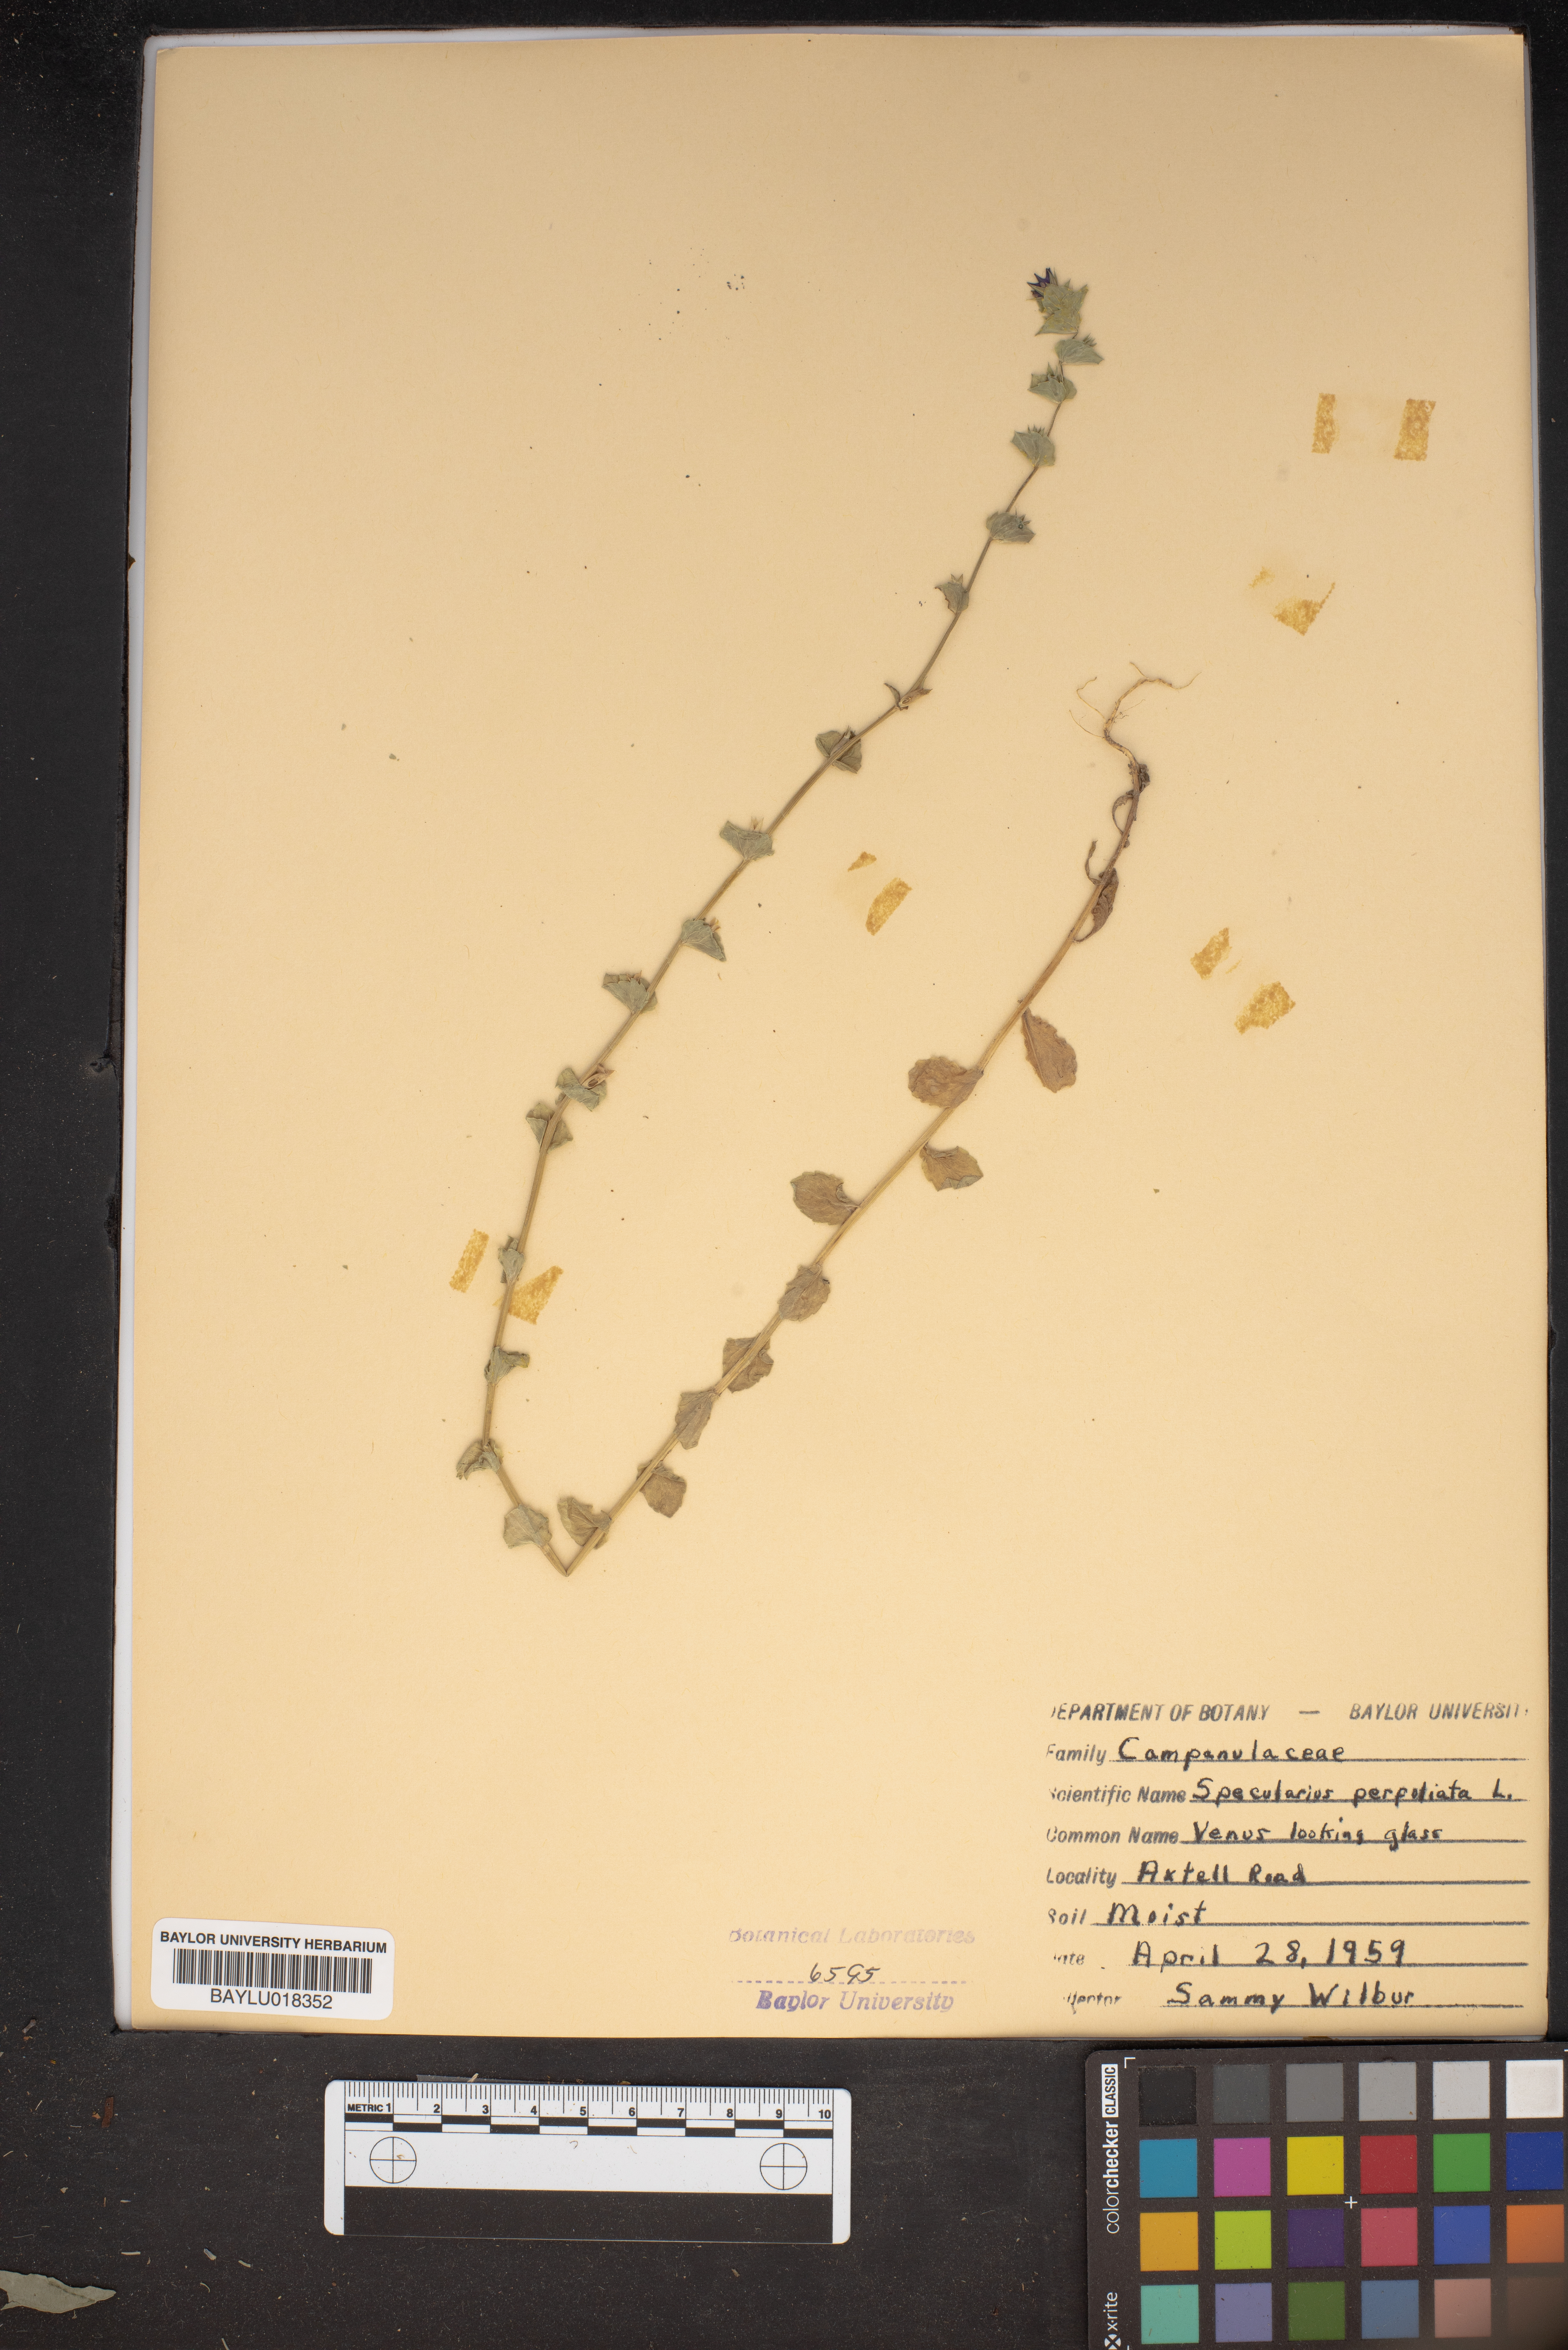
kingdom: Plantae
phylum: Tracheophyta
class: Magnoliopsida
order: Asterales
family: Campanulaceae
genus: Triodanis
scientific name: Triodanis perfoliata
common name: Clasping venus' looking-glass
